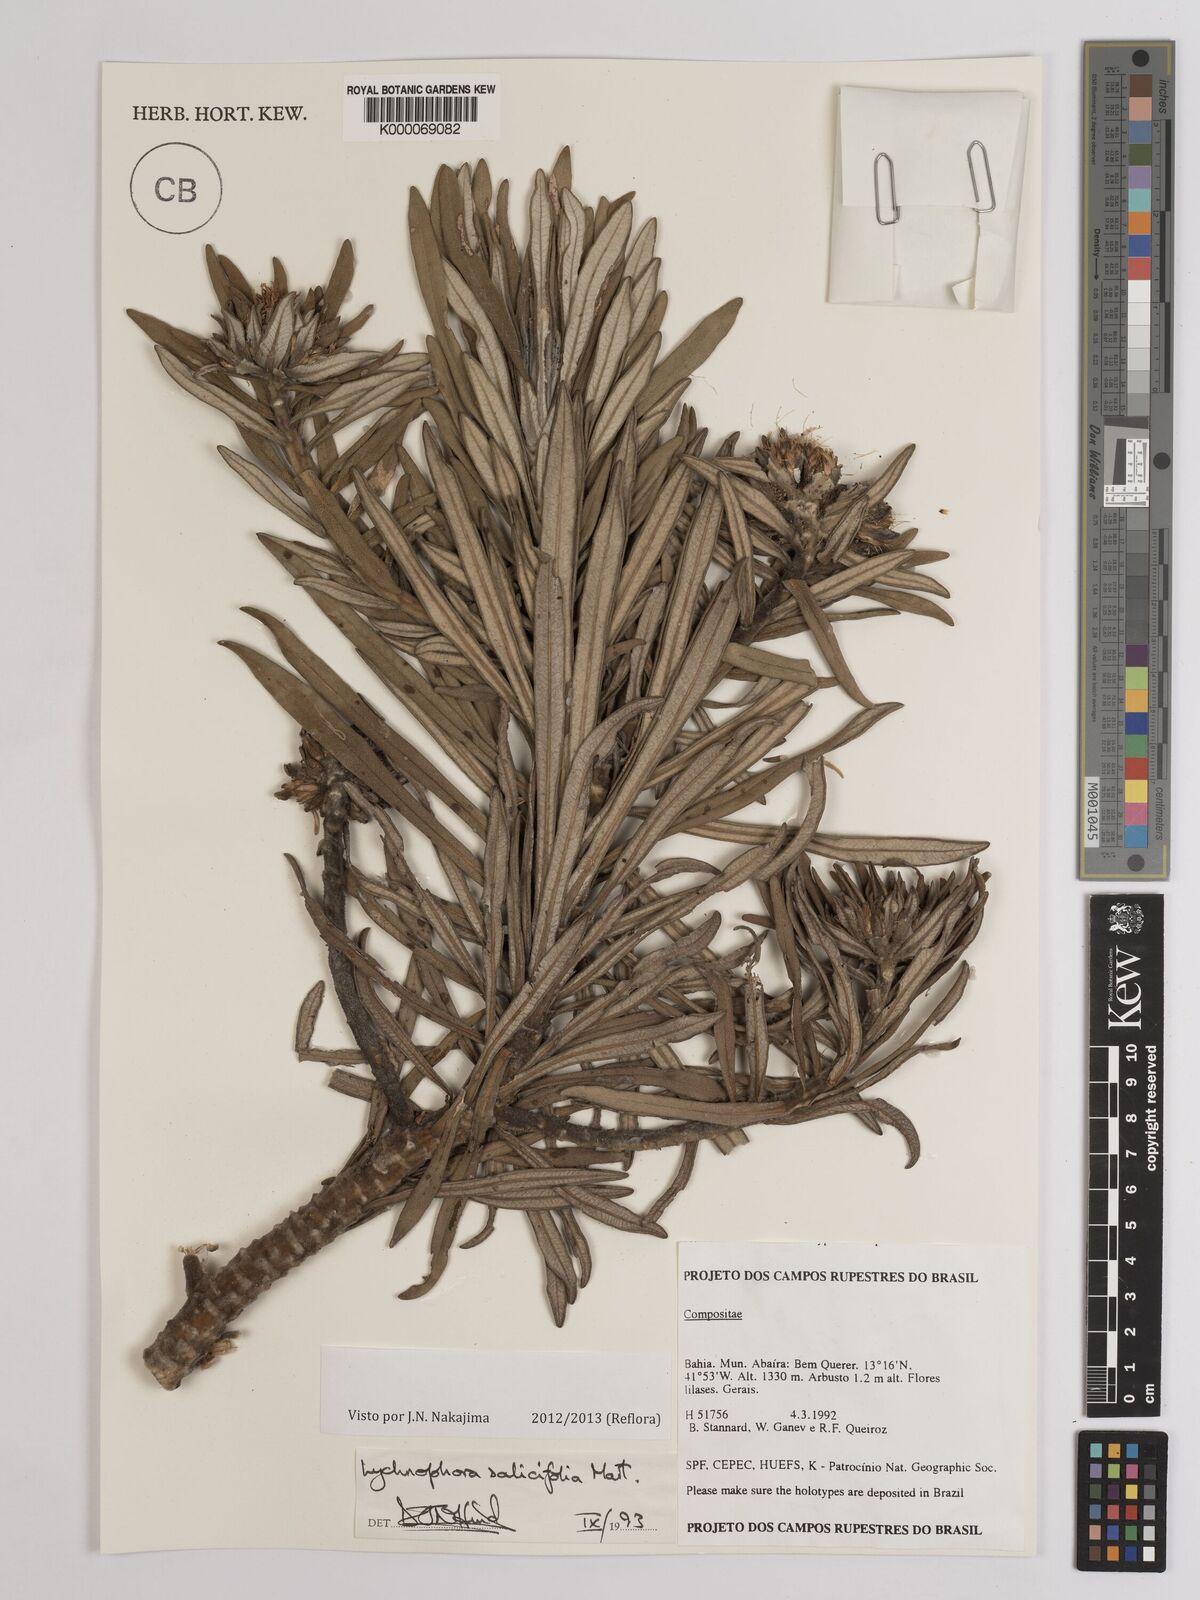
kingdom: Plantae
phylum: Tracheophyta
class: Magnoliopsida
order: Asterales
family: Asteraceae
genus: Lychnophora
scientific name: Lychnophora salicifolia
